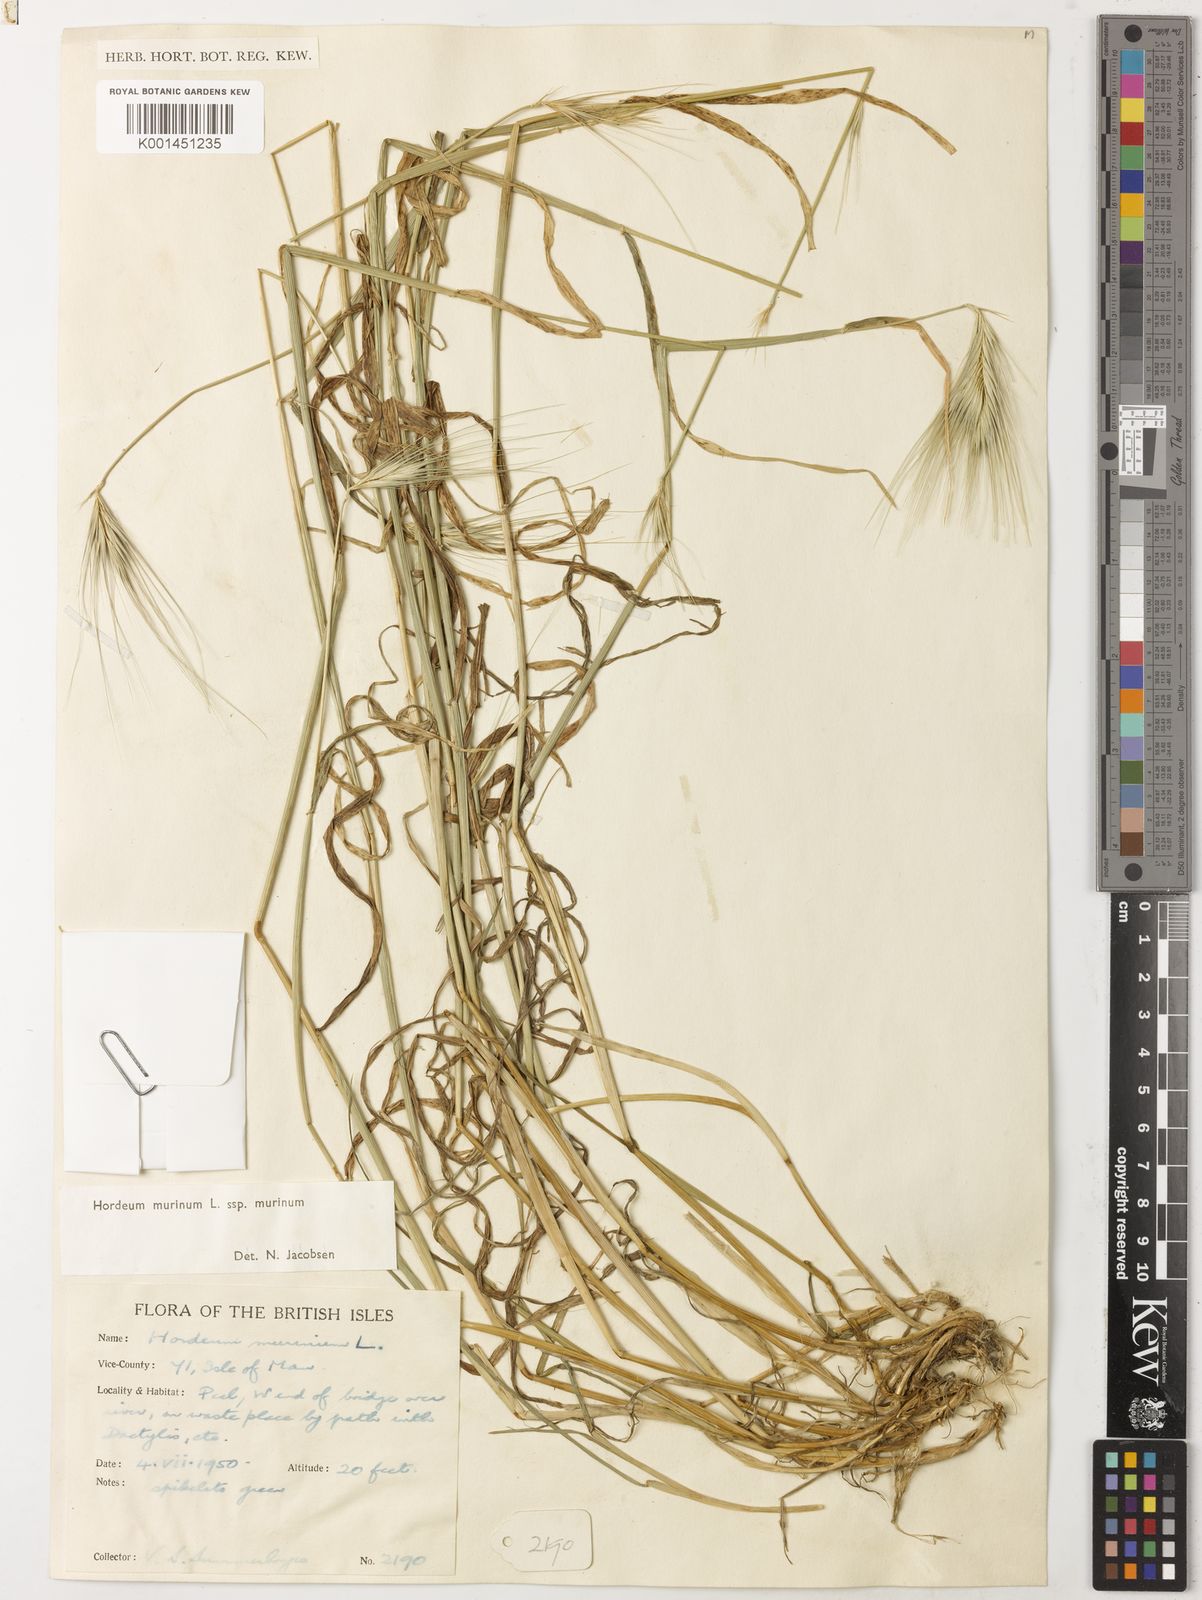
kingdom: Plantae
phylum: Tracheophyta
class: Liliopsida
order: Poales
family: Poaceae
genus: Hordeum
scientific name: Hordeum murinum
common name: Wall barley
